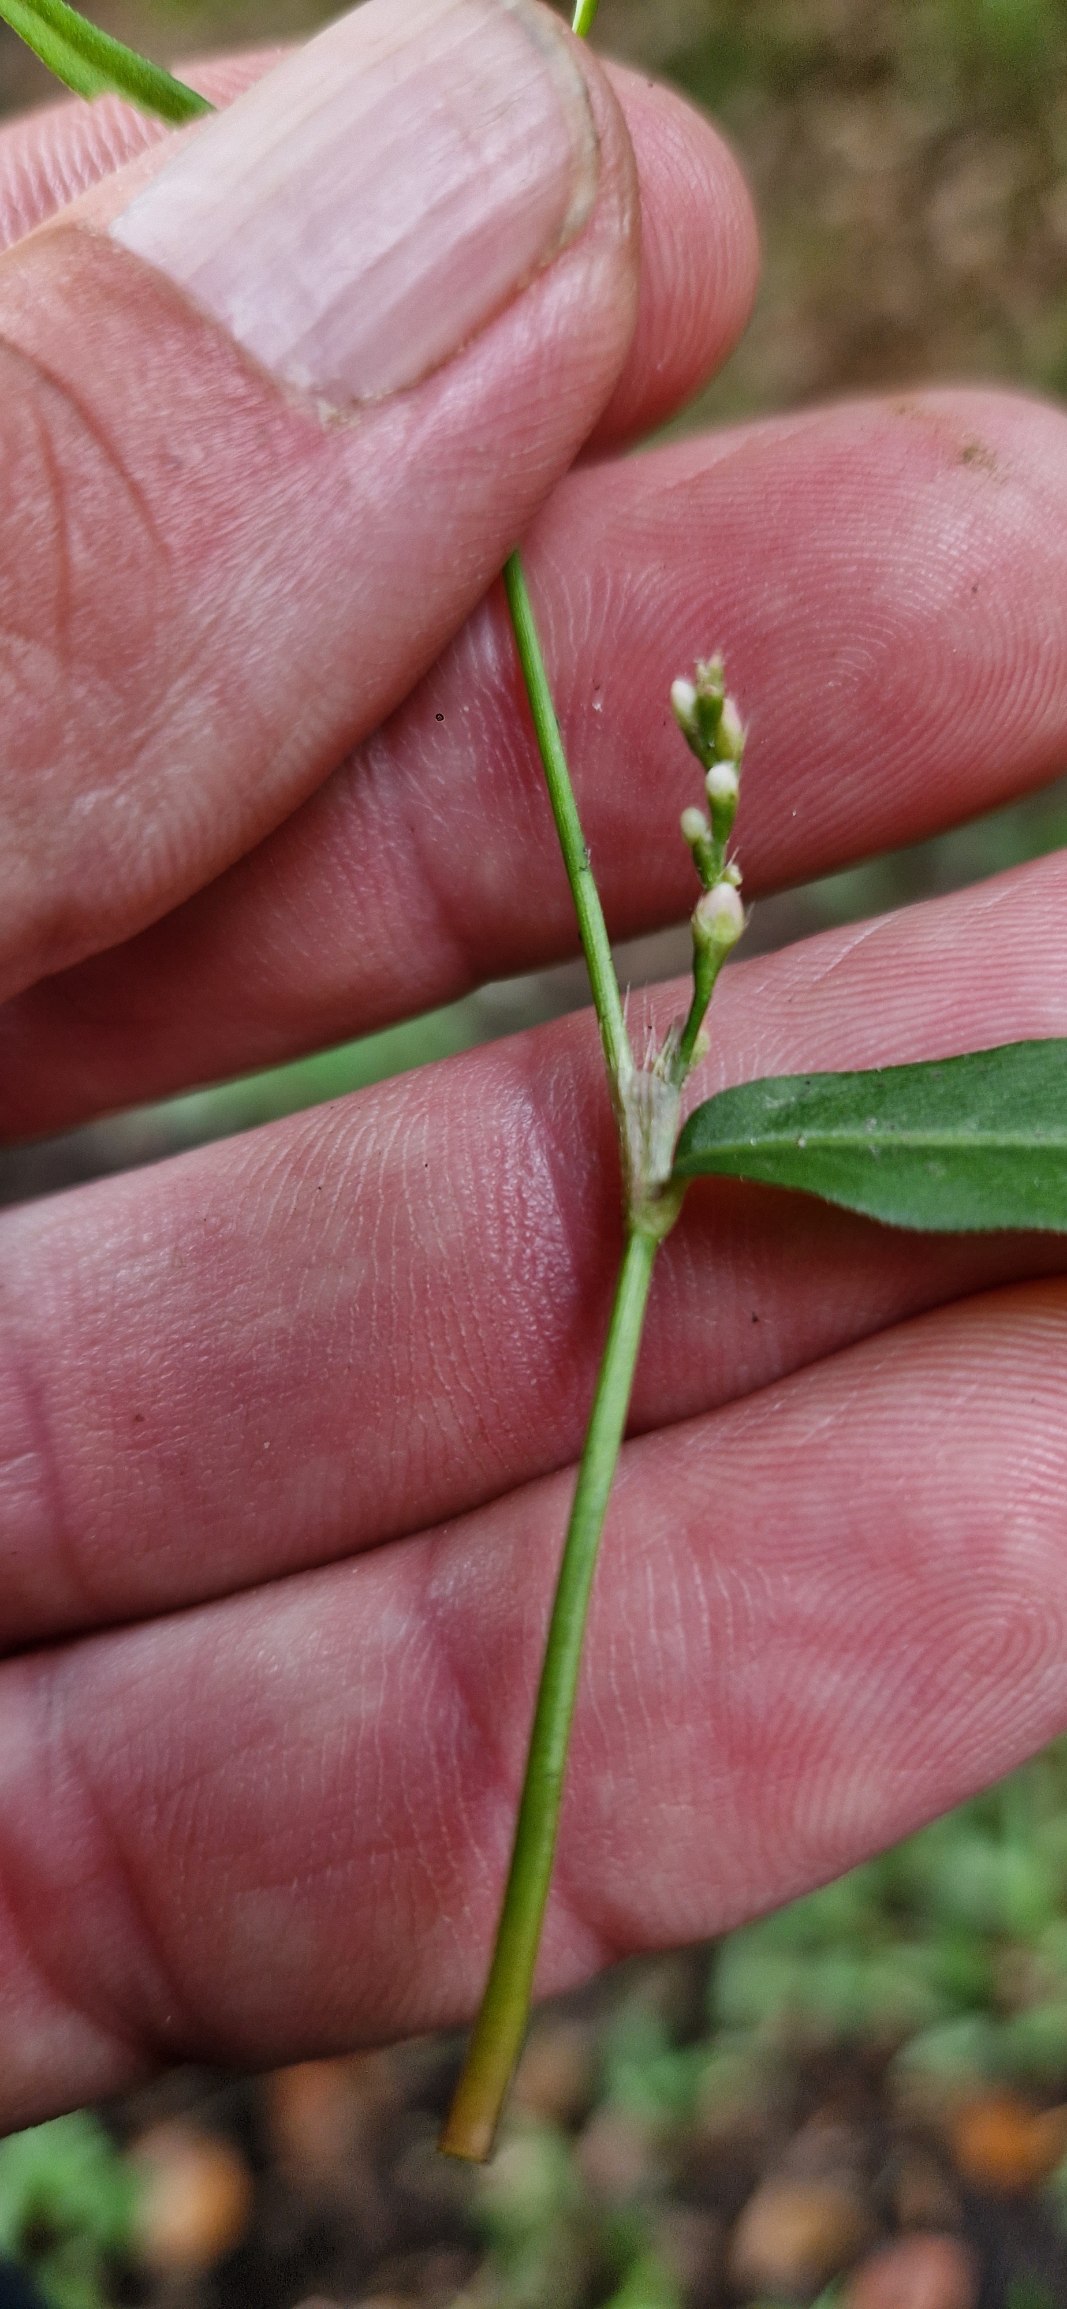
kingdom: Plantae
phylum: Tracheophyta
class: Magnoliopsida
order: Caryophyllales
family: Polygonaceae
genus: Persicaria
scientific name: Persicaria minor
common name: Liden pileurt
